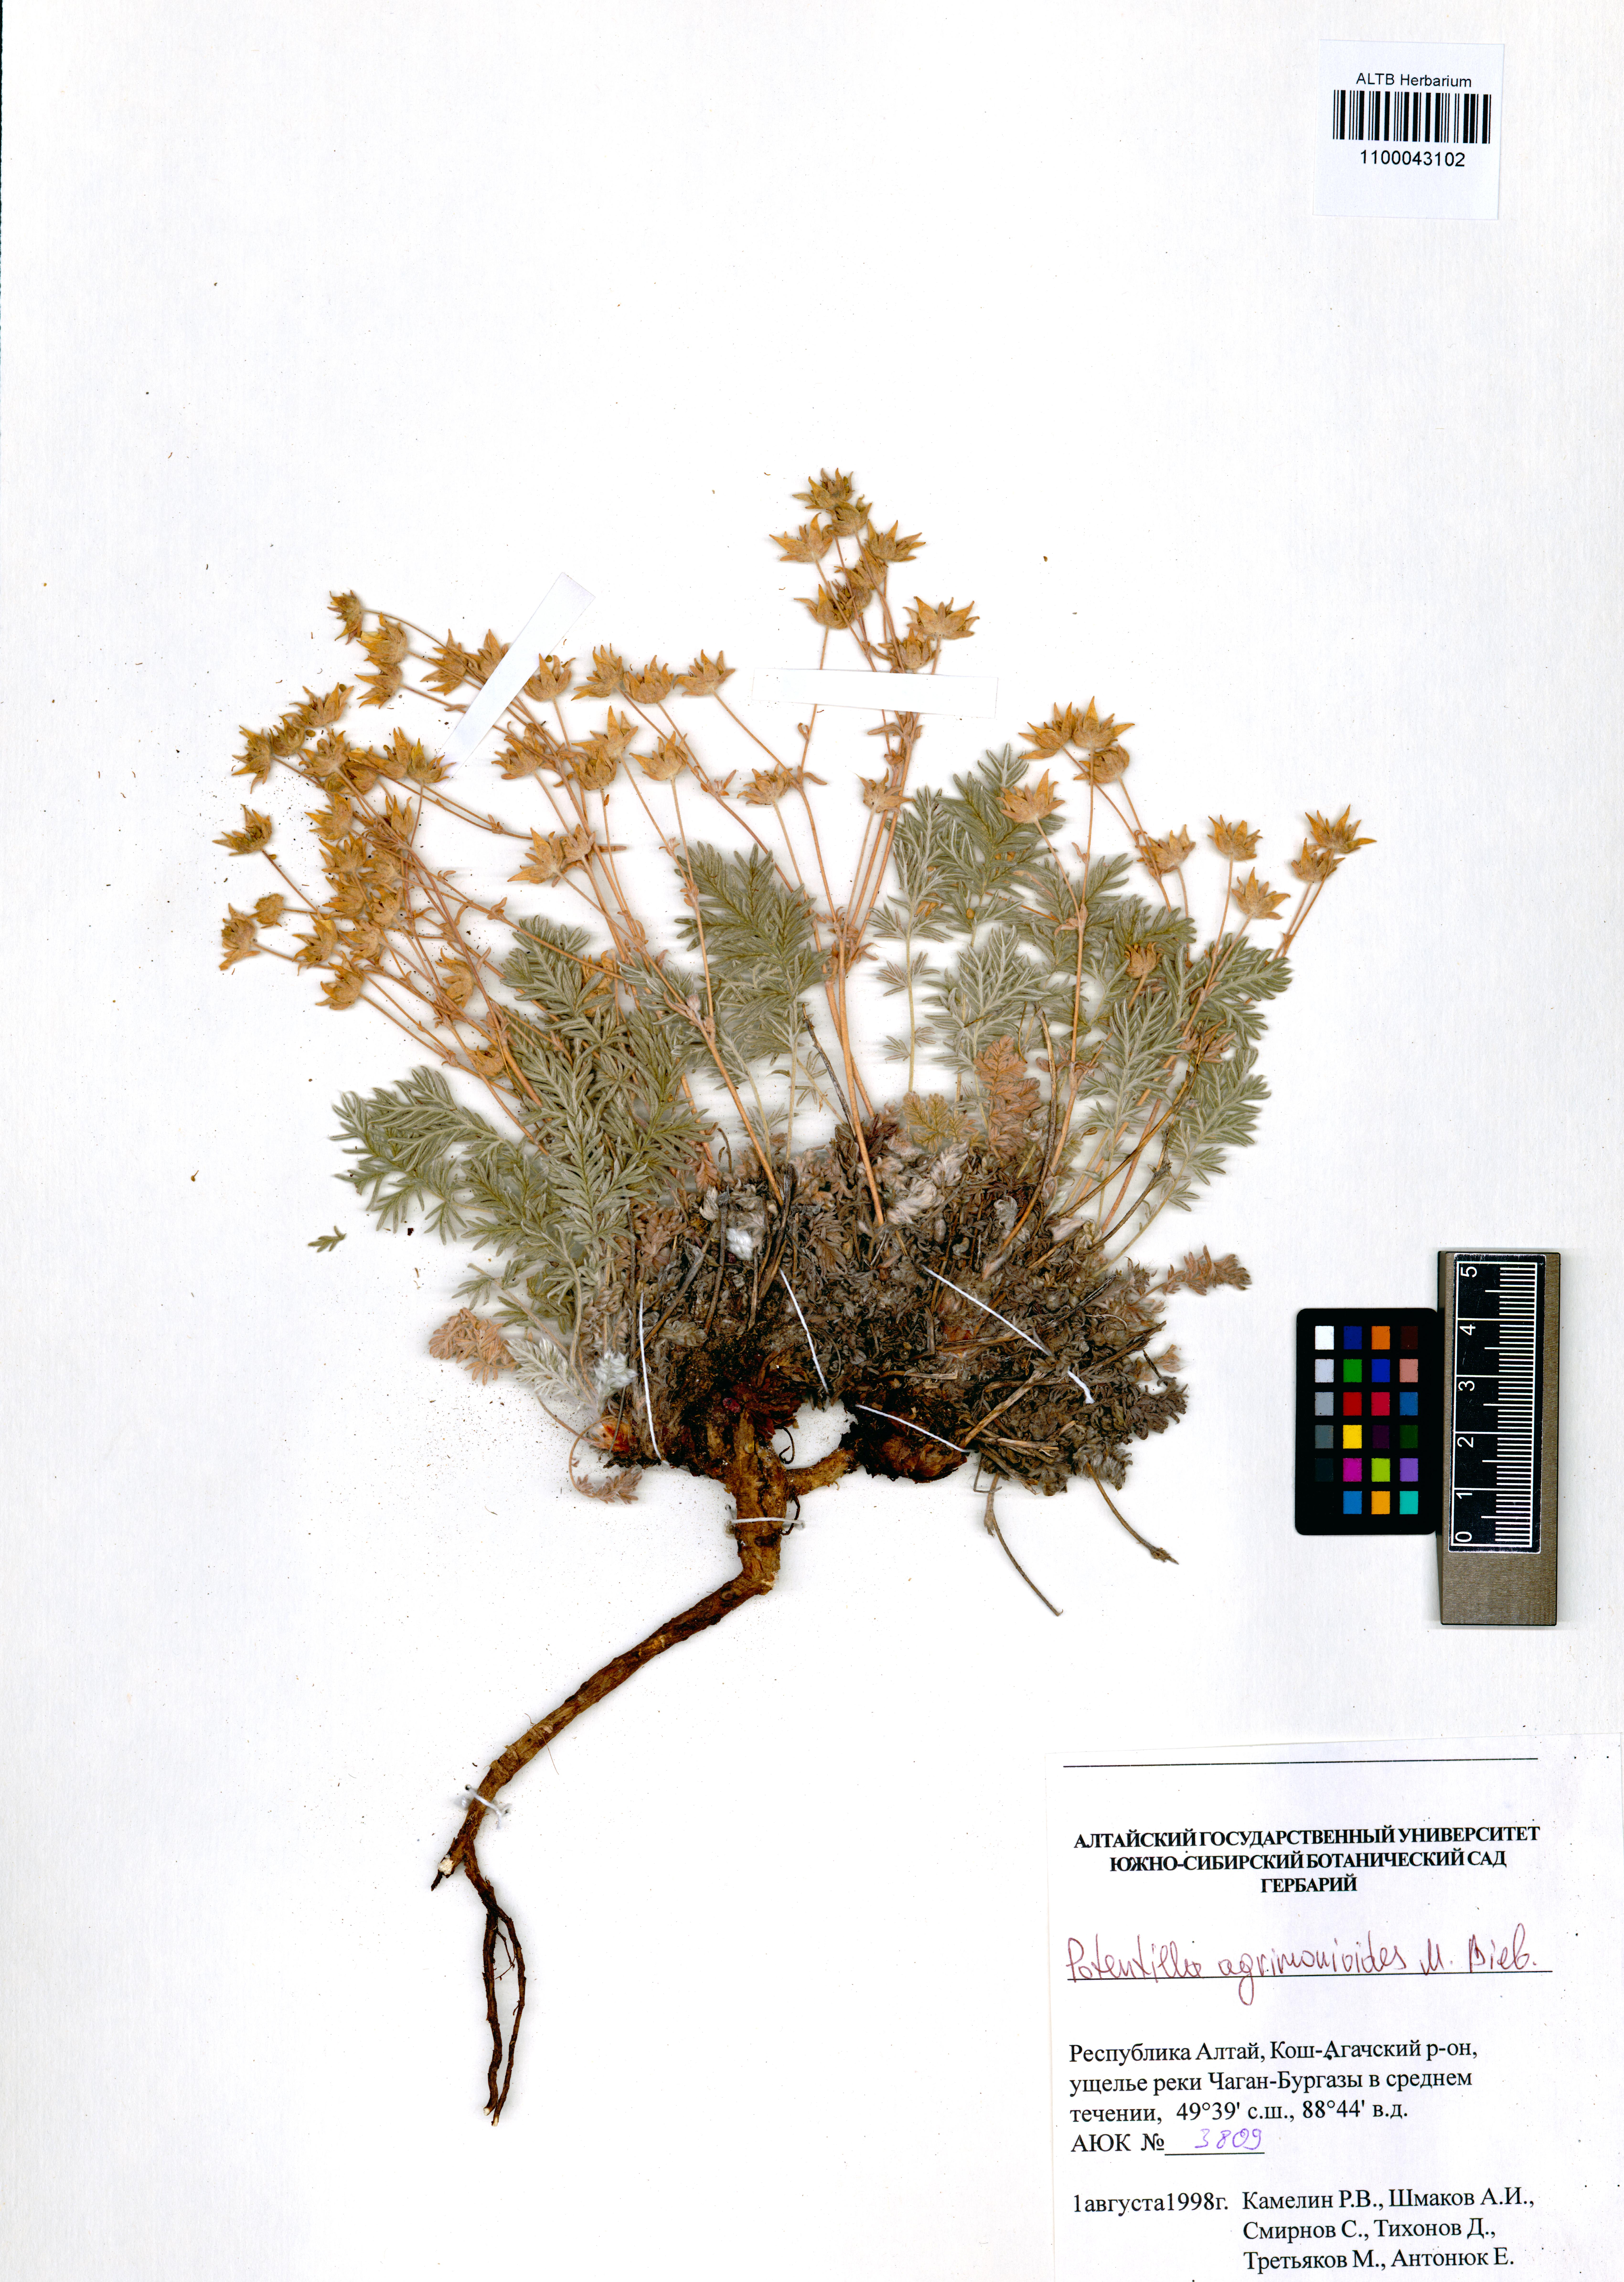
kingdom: Plantae
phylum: Tracheophyta
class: Magnoliopsida
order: Rosales
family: Rosaceae
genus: Potentilla
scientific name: Potentilla agrimonioides
